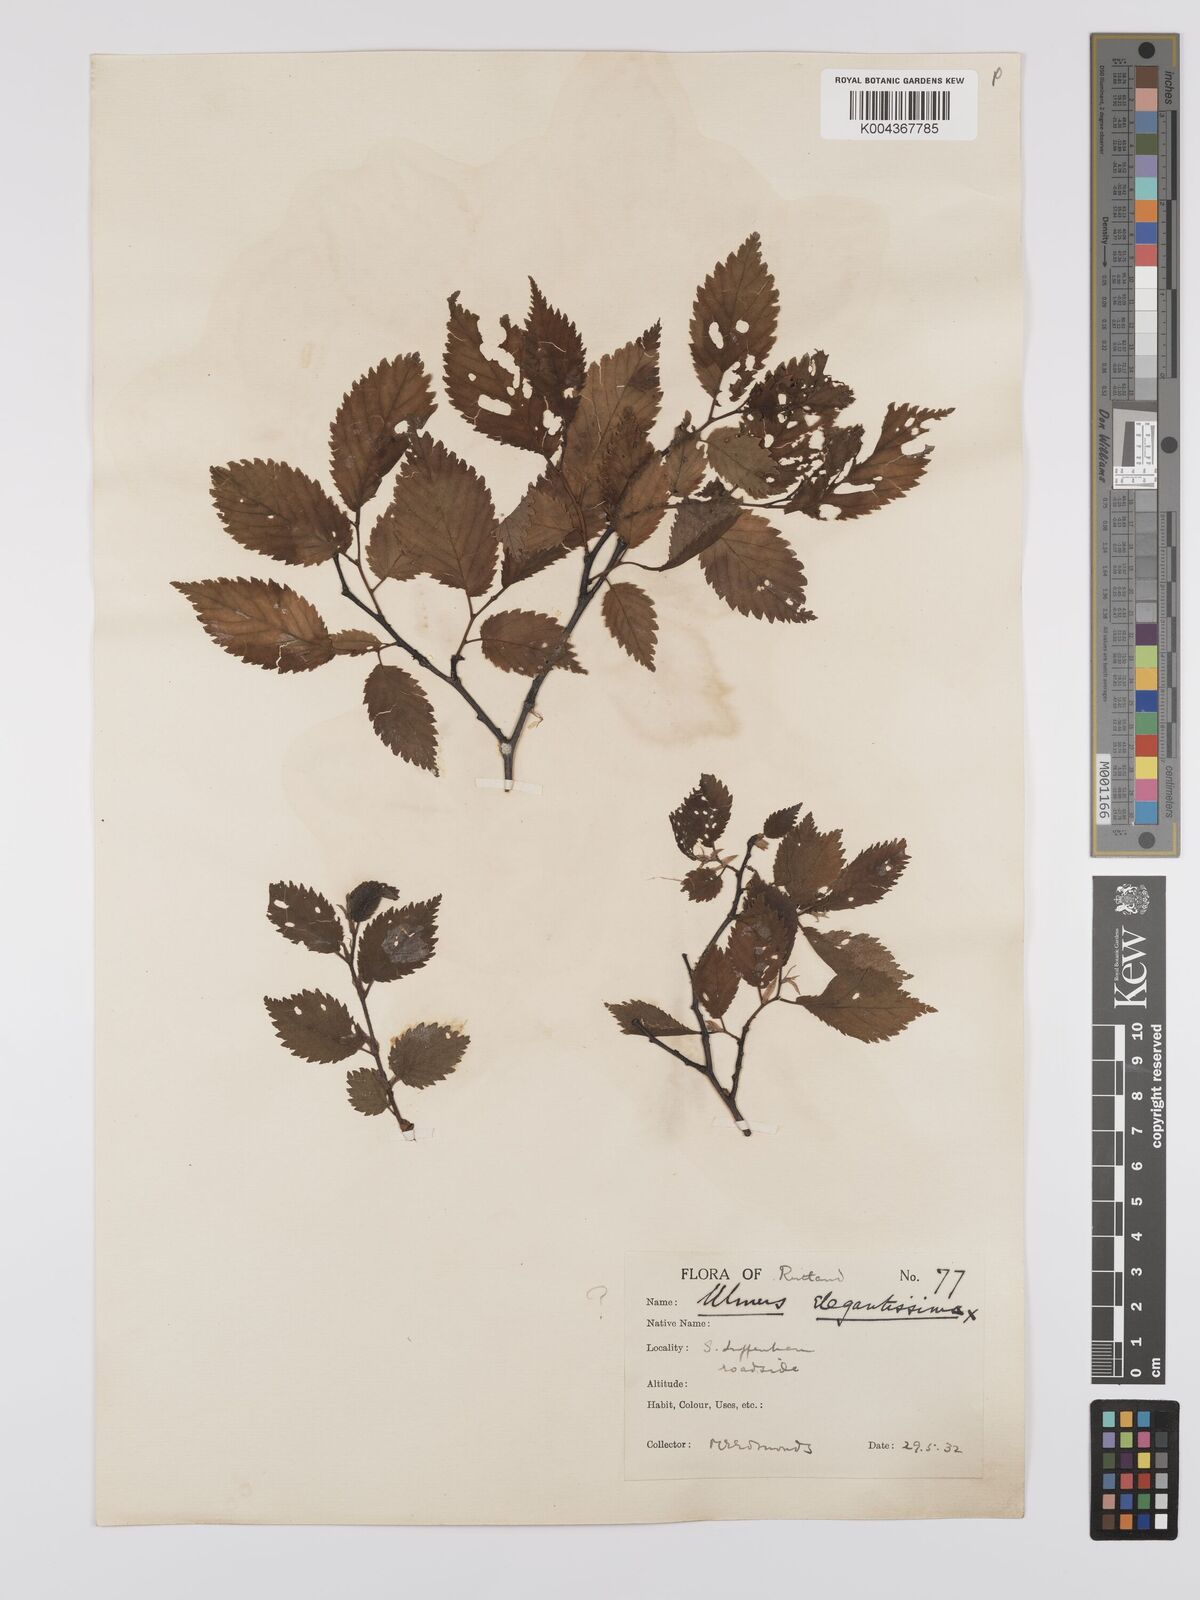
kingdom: Plantae
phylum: Tracheophyta
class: Magnoliopsida
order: Rosales
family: Ulmaceae
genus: Ulmus
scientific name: Ulmus
